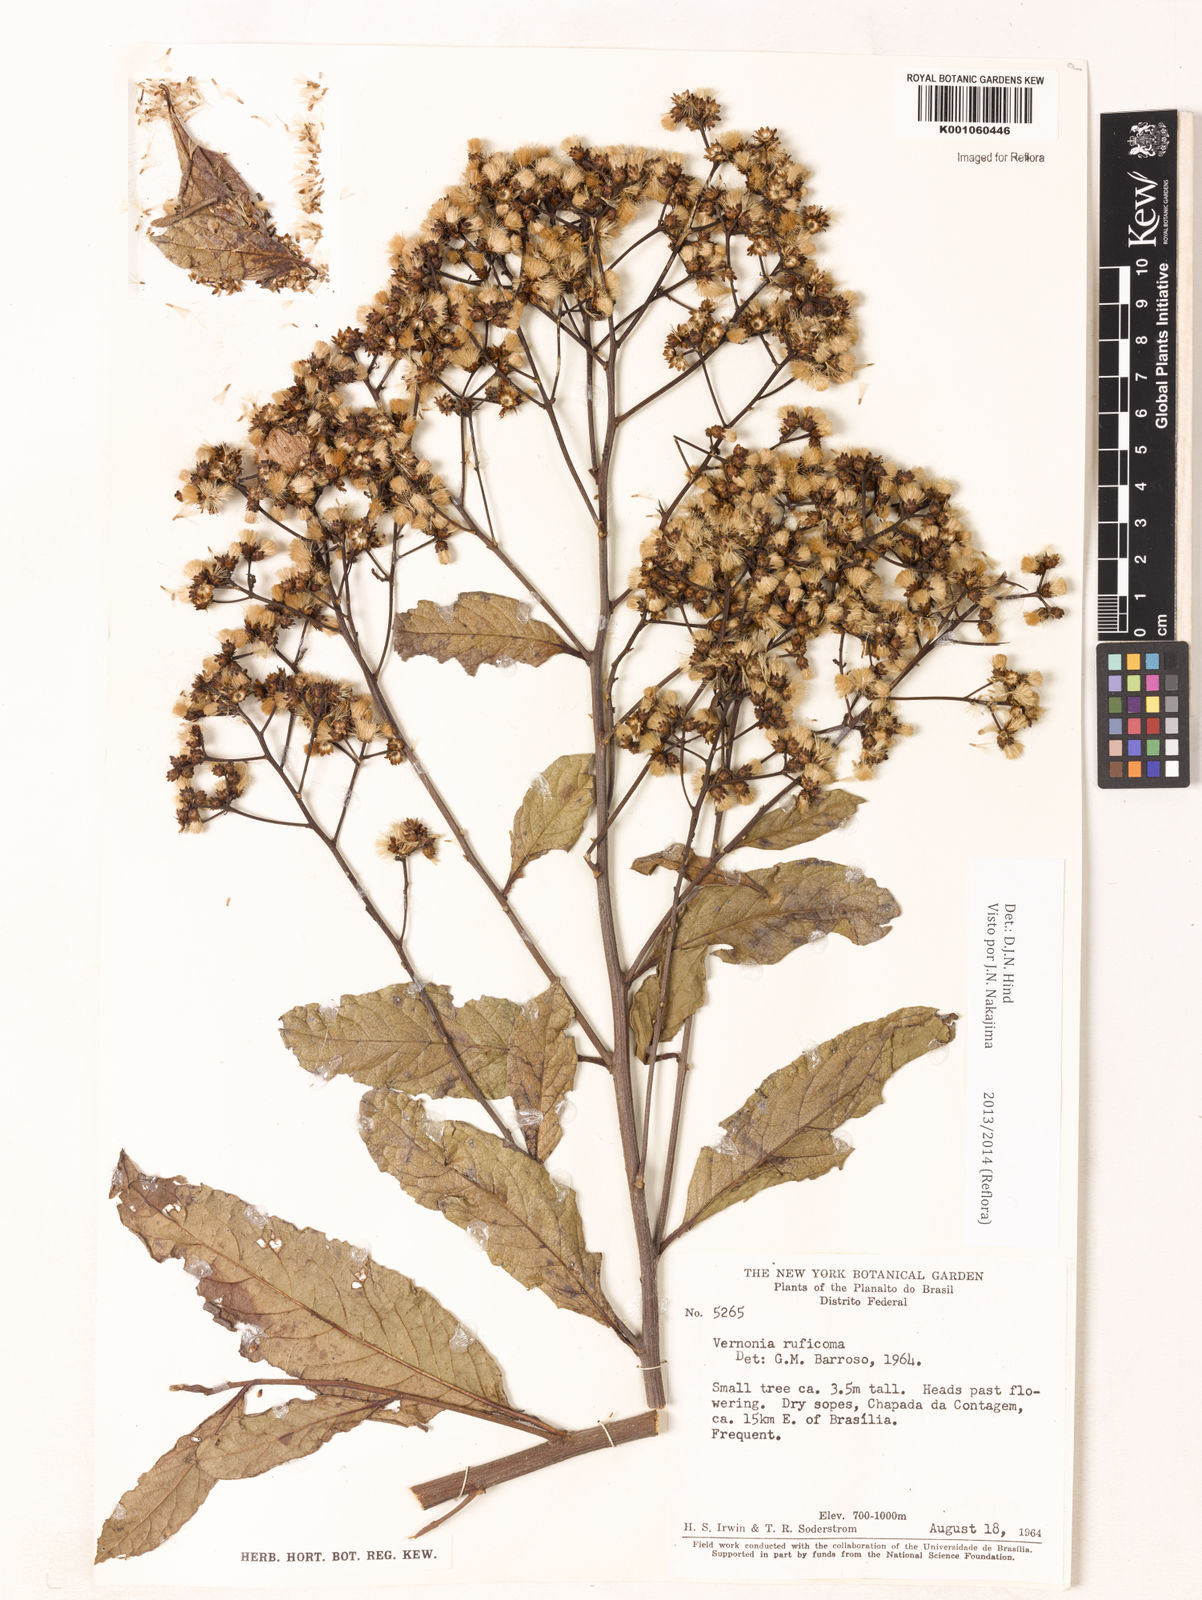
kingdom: Plantae
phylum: Tracheophyta
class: Magnoliopsida
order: Asterales
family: Asteraceae
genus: Vernonia
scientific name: Vernonia
